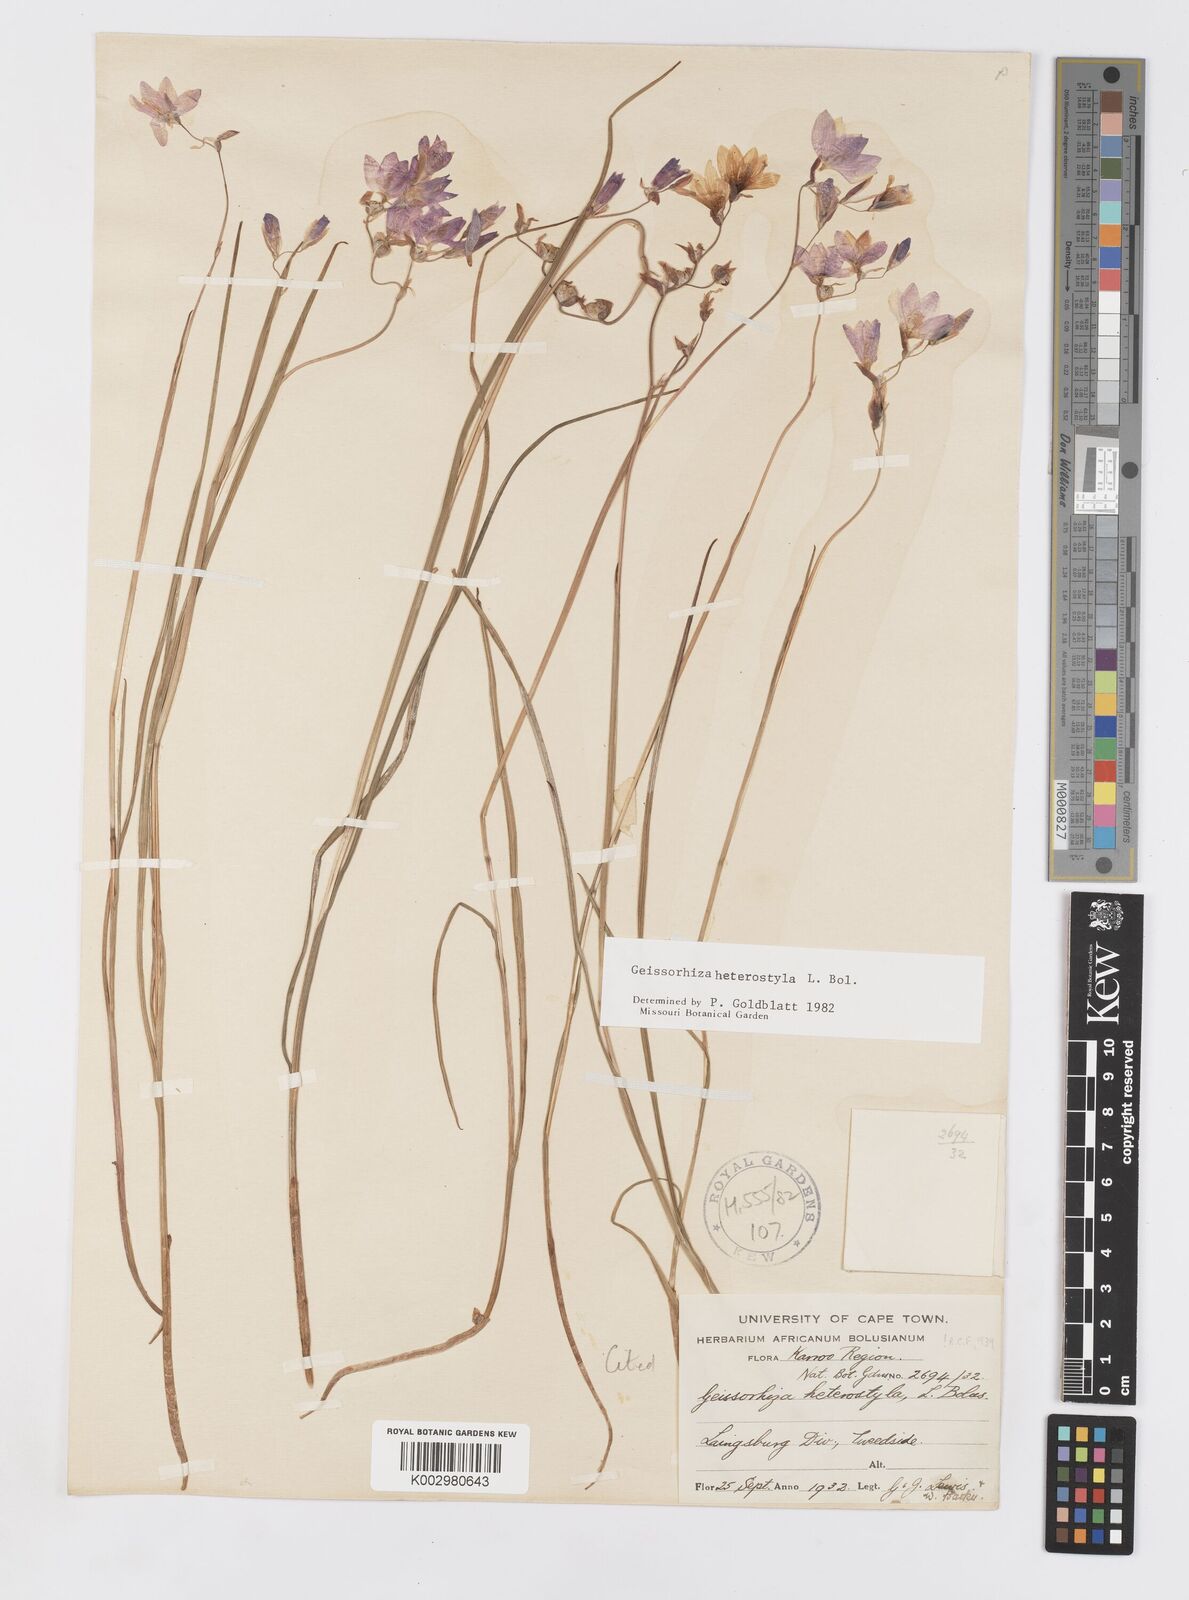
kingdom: Plantae
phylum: Tracheophyta
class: Liliopsida
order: Asparagales
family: Iridaceae
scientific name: Iridaceae
